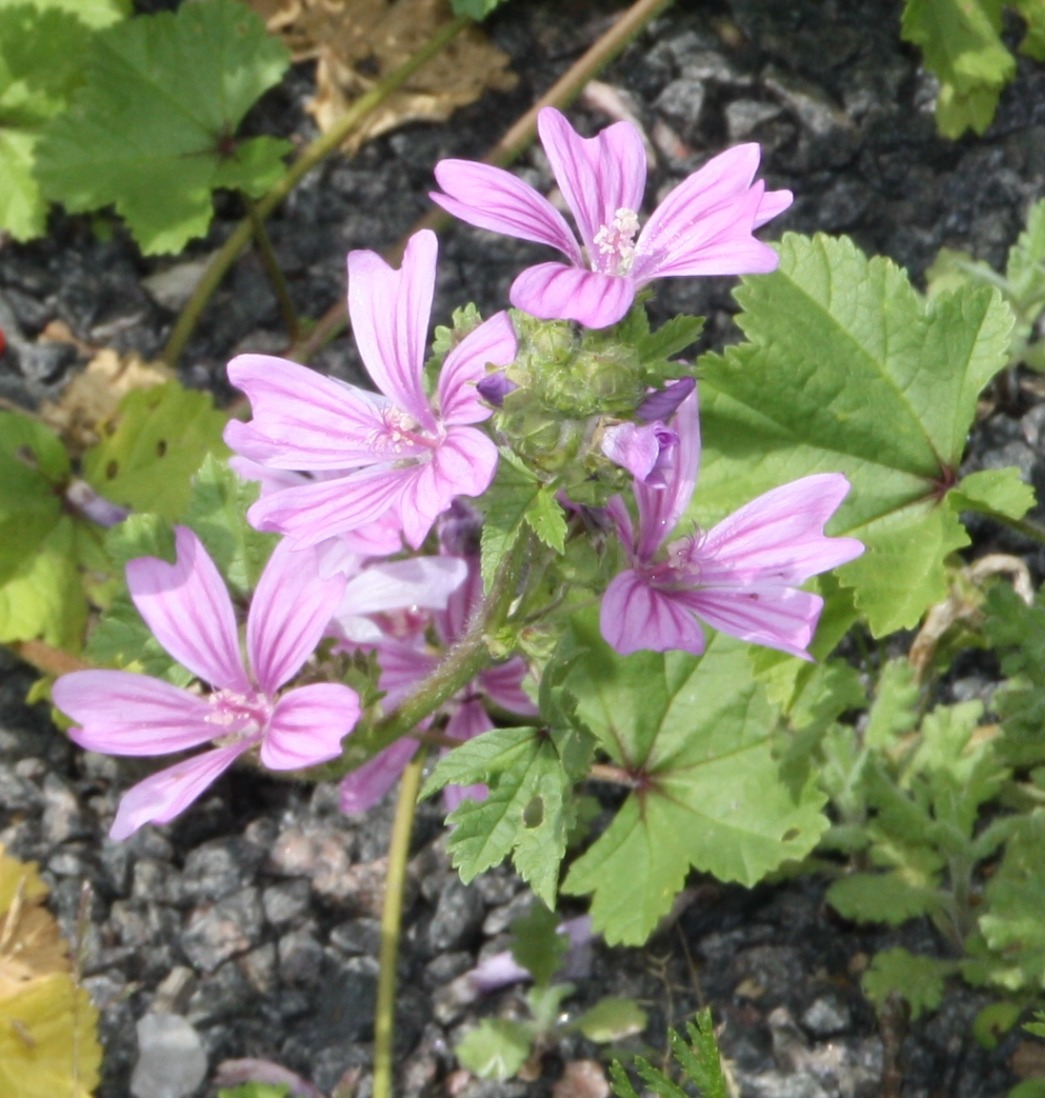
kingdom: Plantae
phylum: Tracheophyta
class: Magnoliopsida
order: Malvales
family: Malvaceae
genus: Malva
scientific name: Malva sylvestris
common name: Almindelig katost
